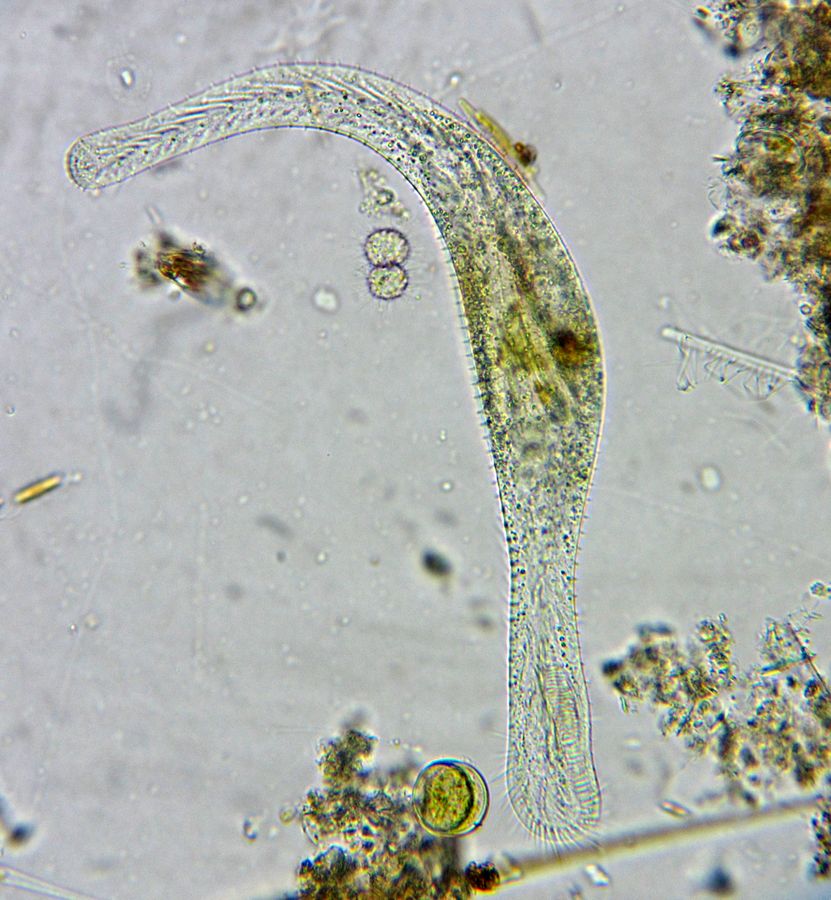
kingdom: Chromista
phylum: Ciliophora
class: Hypotrichea
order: Stichotrichida
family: Epiclintidae
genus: Epiclintes
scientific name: Epiclintes felis
